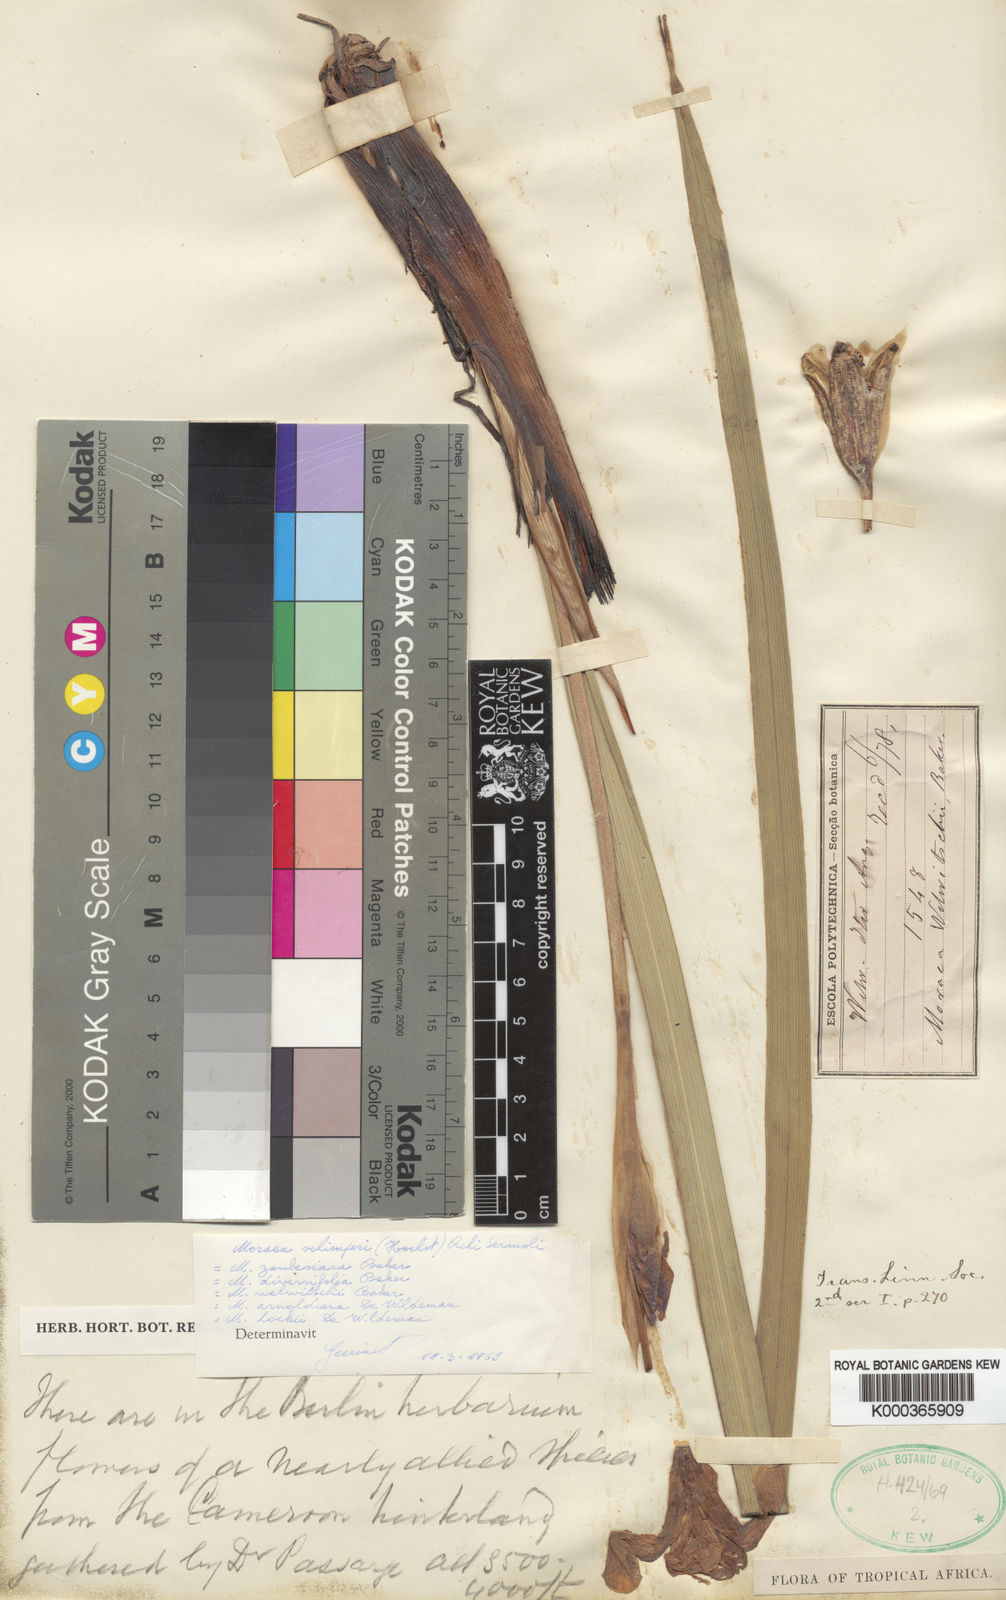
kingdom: Plantae
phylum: Tracheophyta
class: Liliopsida
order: Asparagales
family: Iridaceae
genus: Moraea
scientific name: Moraea schimperi
